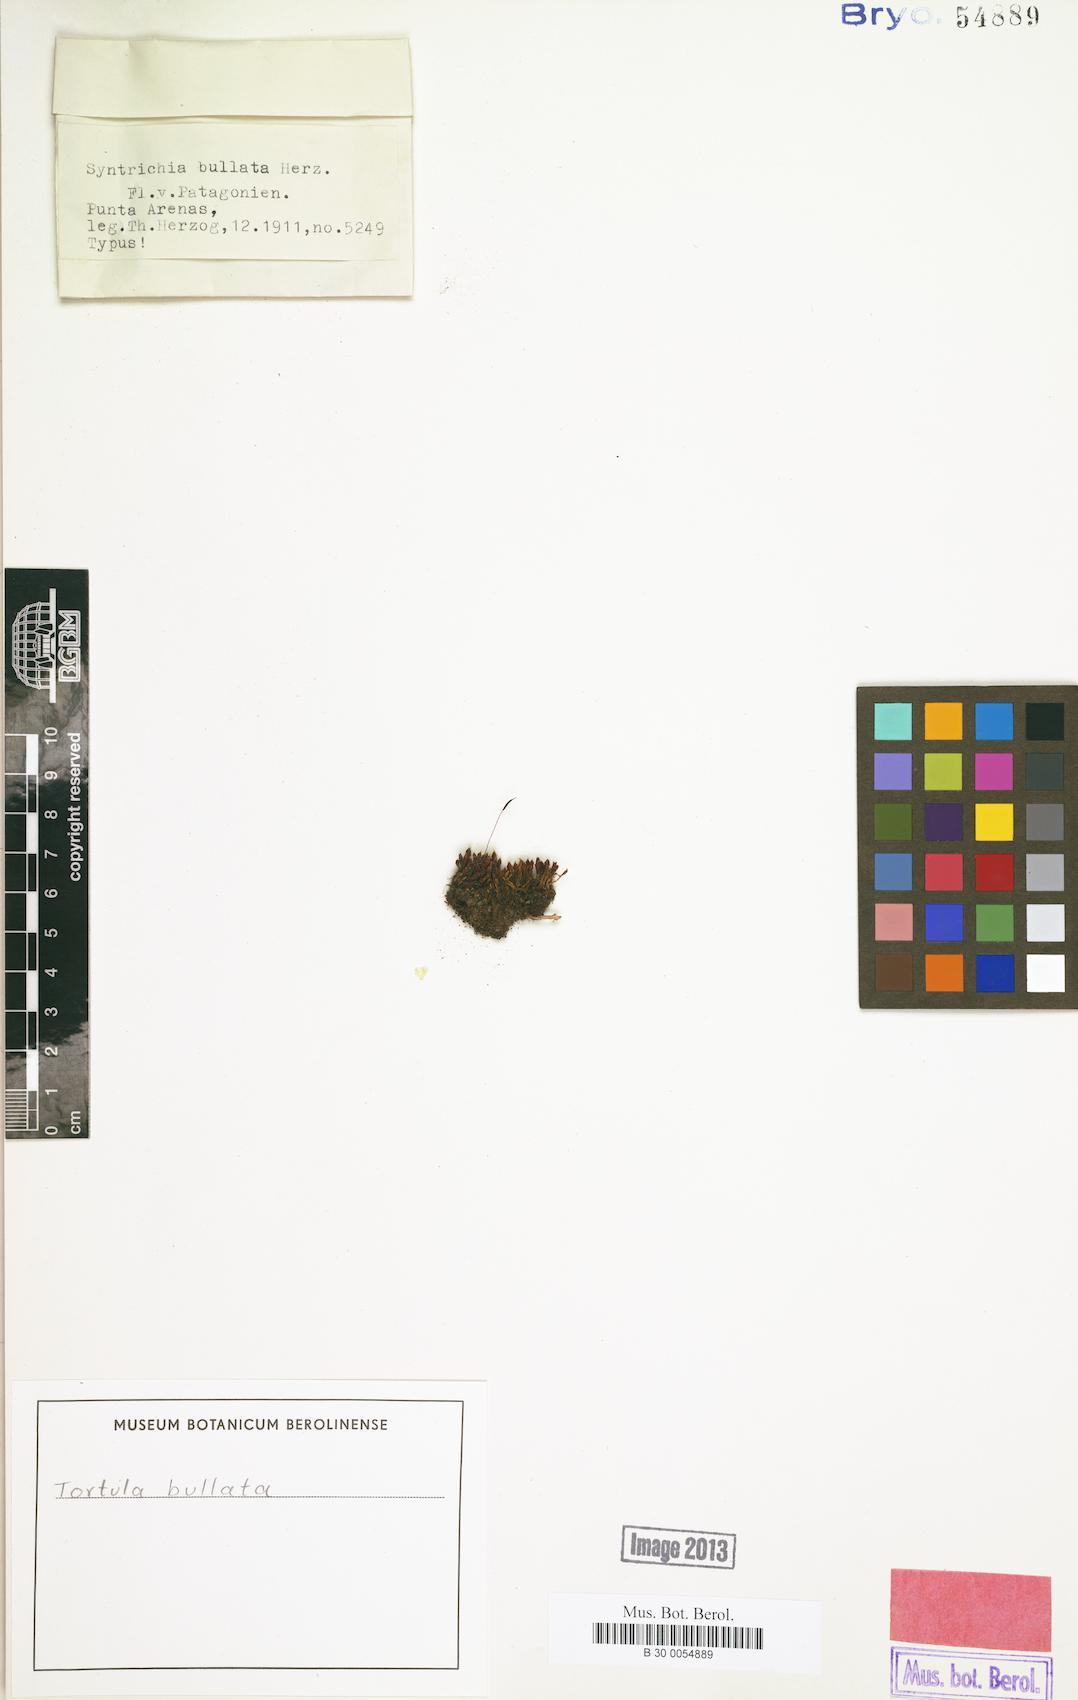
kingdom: Plantae
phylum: Bryophyta
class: Bryopsida
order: Pottiales
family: Pottiaceae
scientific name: Pottiaceae
